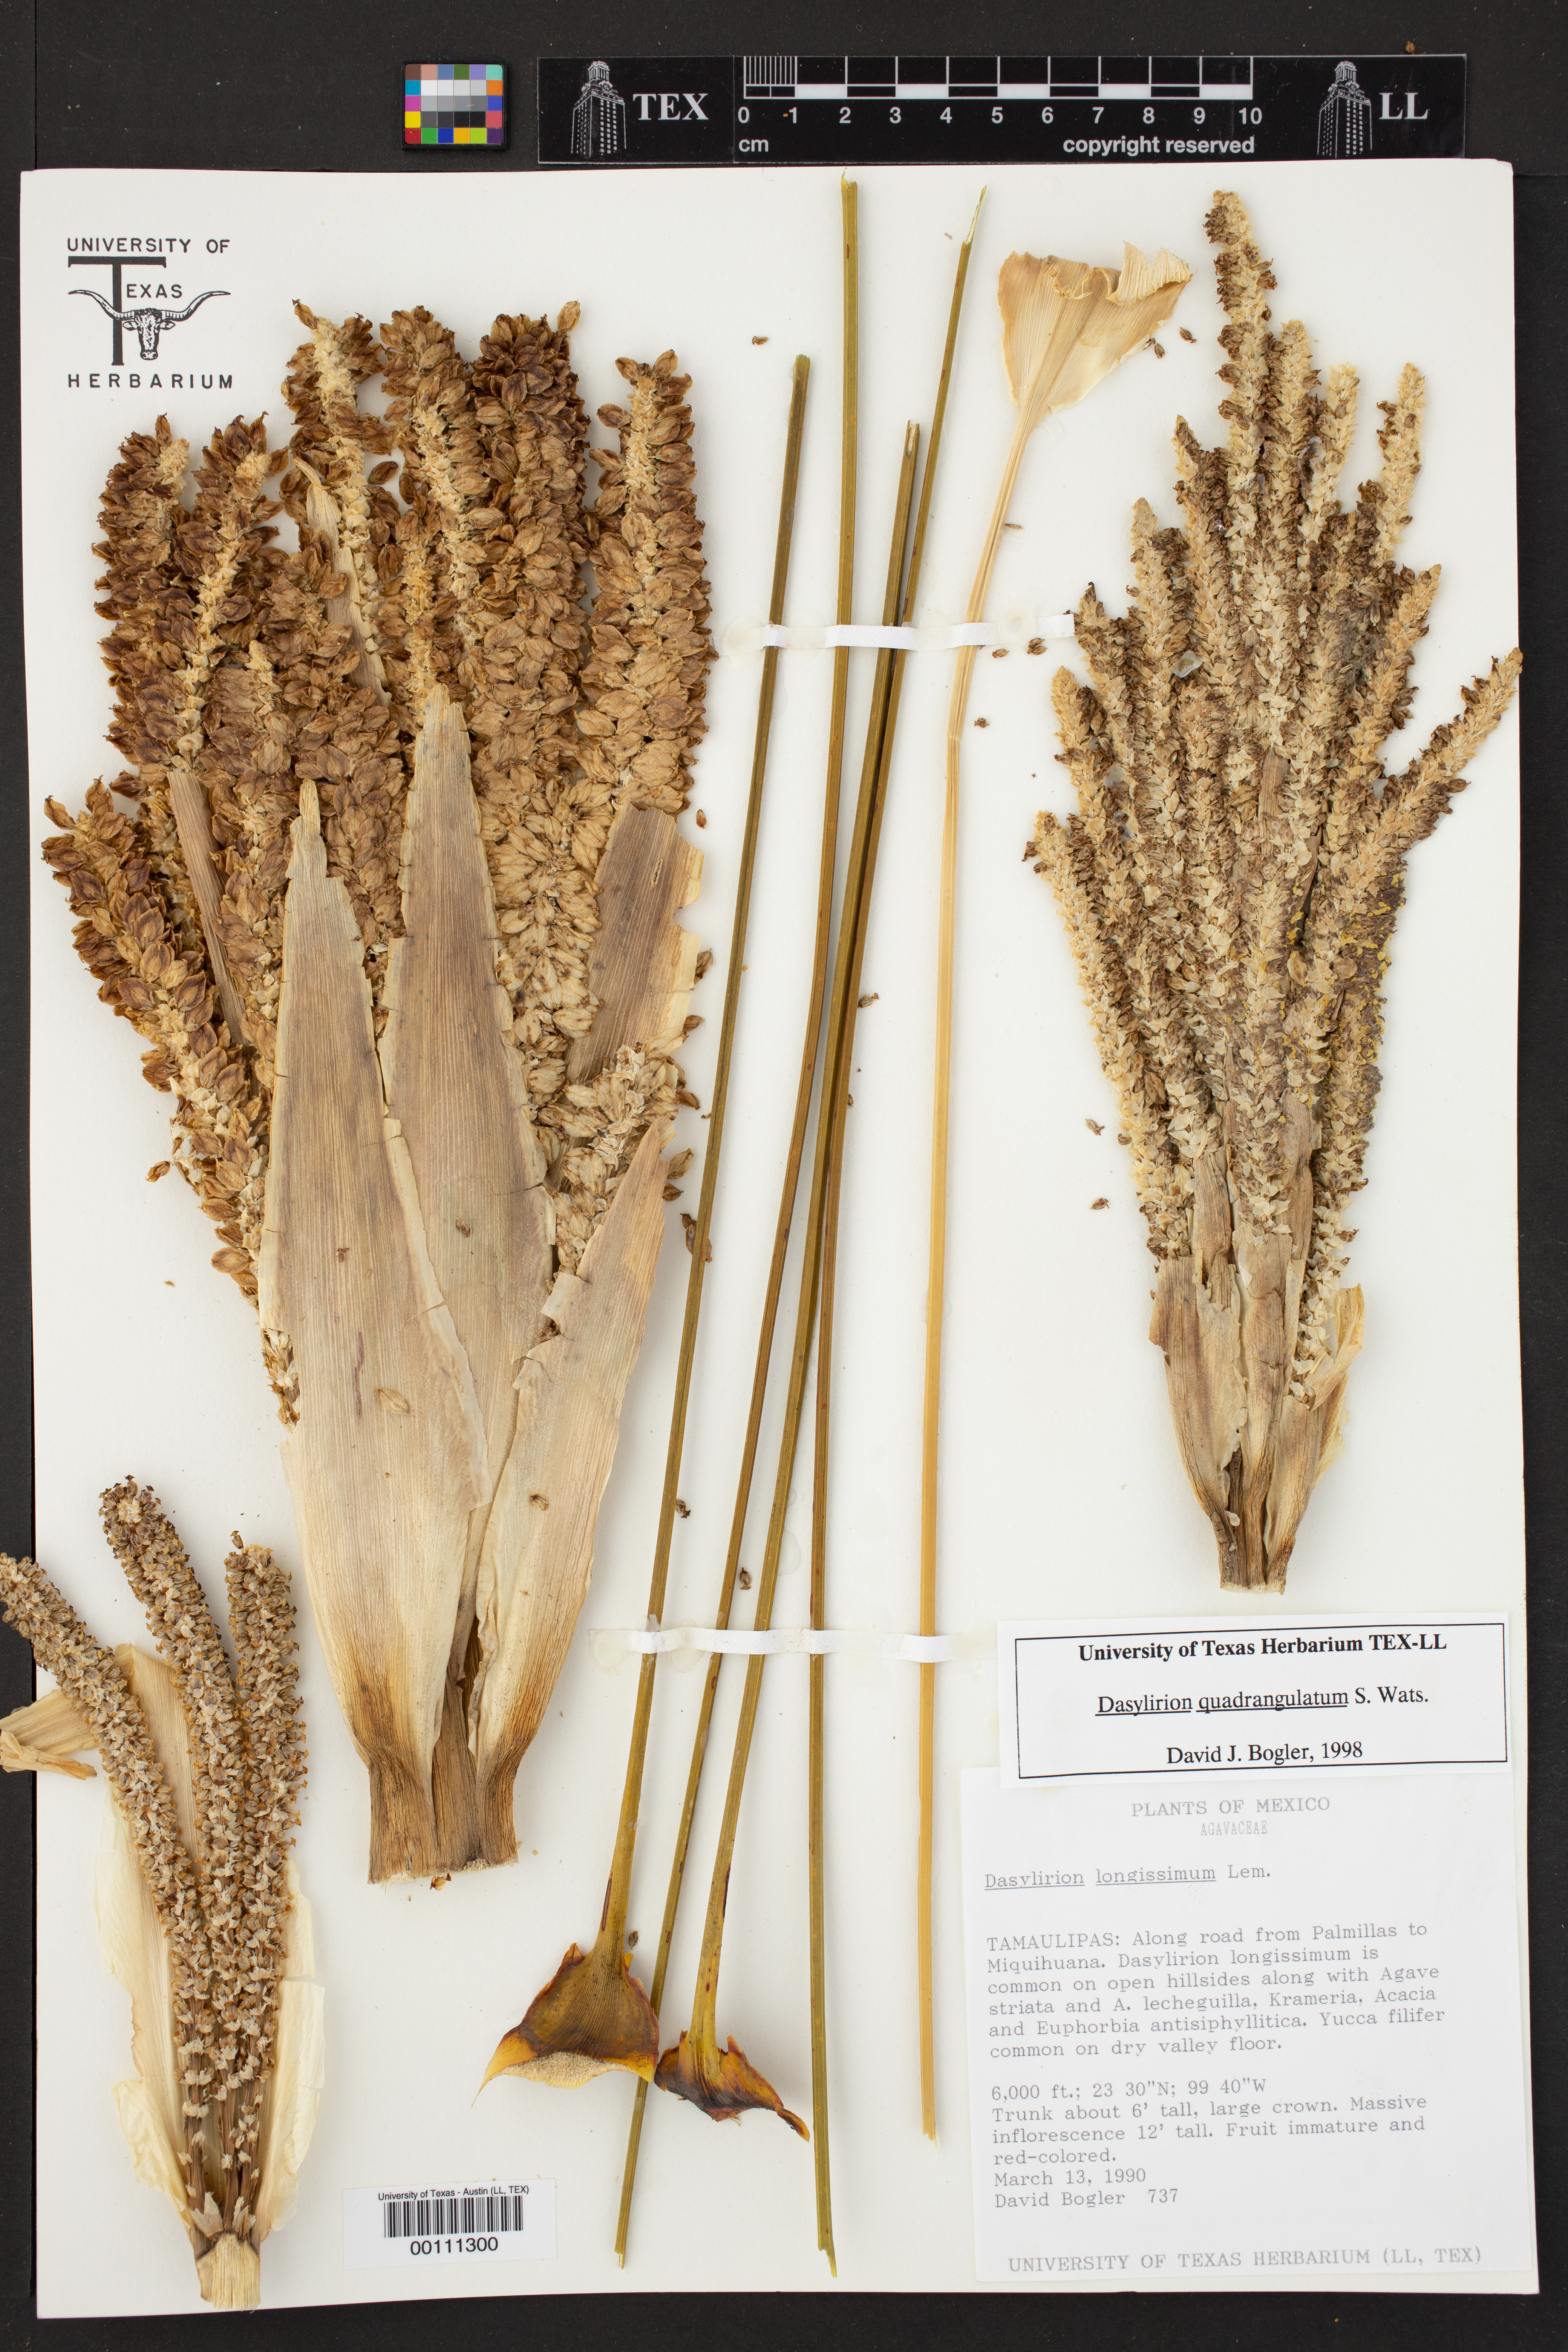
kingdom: Plantae
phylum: Tracheophyta
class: Liliopsida
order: Asparagales
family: Asparagaceae
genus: Dasylirion
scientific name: Dasylirion quadrangulatum
